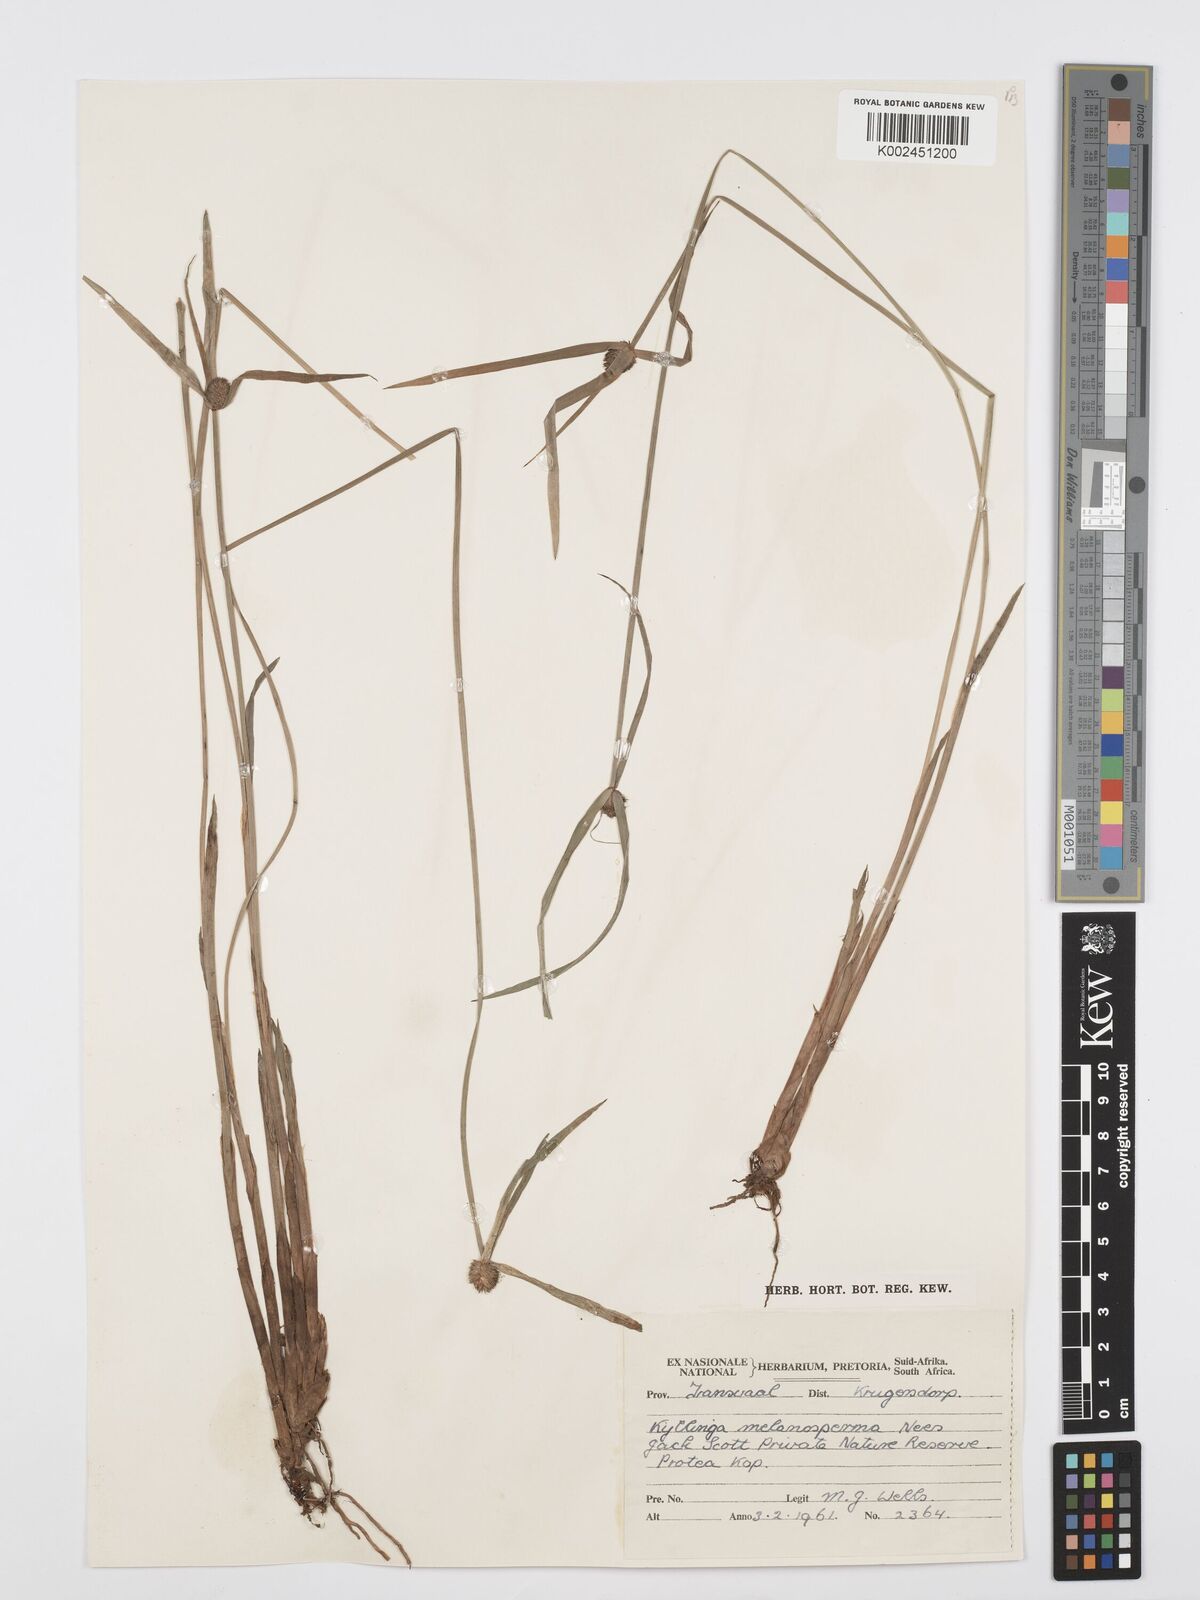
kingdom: Plantae
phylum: Tracheophyta
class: Liliopsida
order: Poales
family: Cyperaceae
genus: Cyperus
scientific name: Cyperus melanospermus
